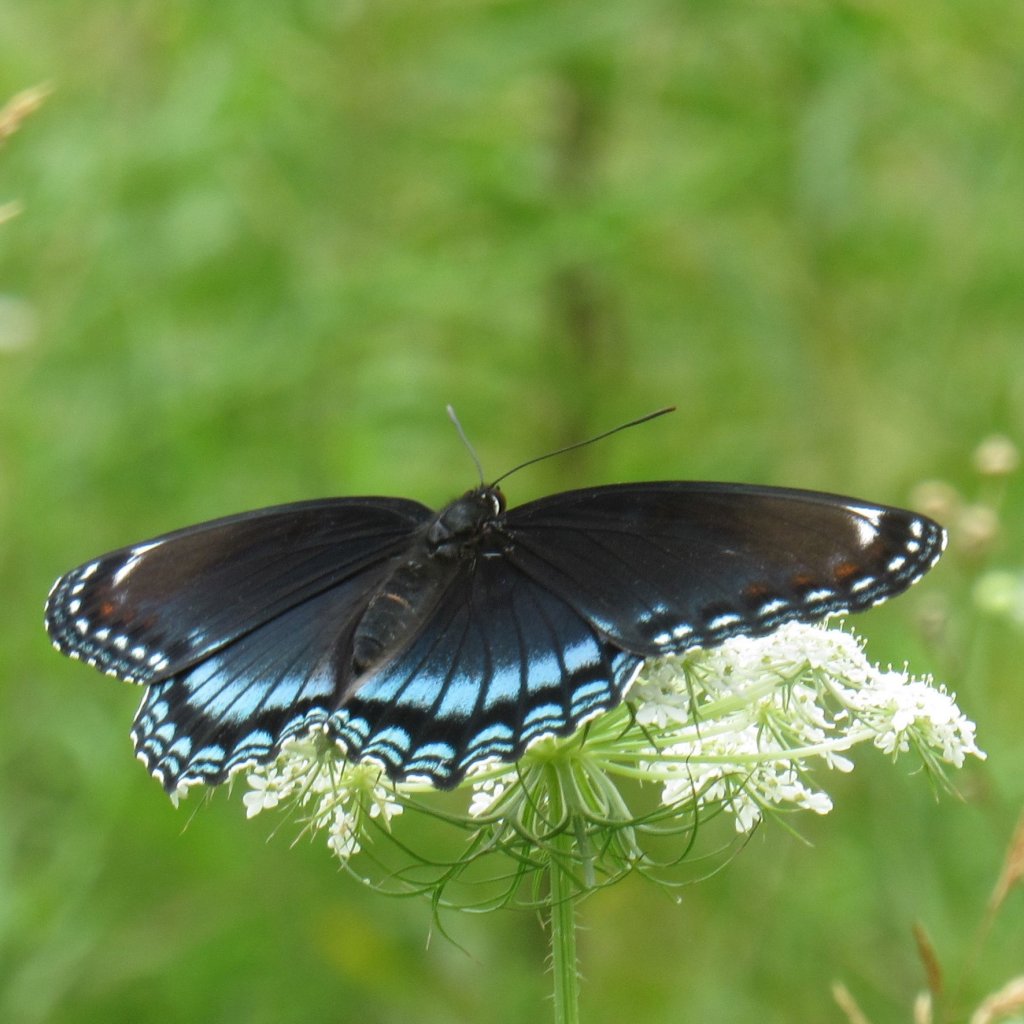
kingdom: Animalia
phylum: Arthropoda
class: Insecta
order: Lepidoptera
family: Nymphalidae
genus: Limenitis
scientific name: Limenitis astyanax
